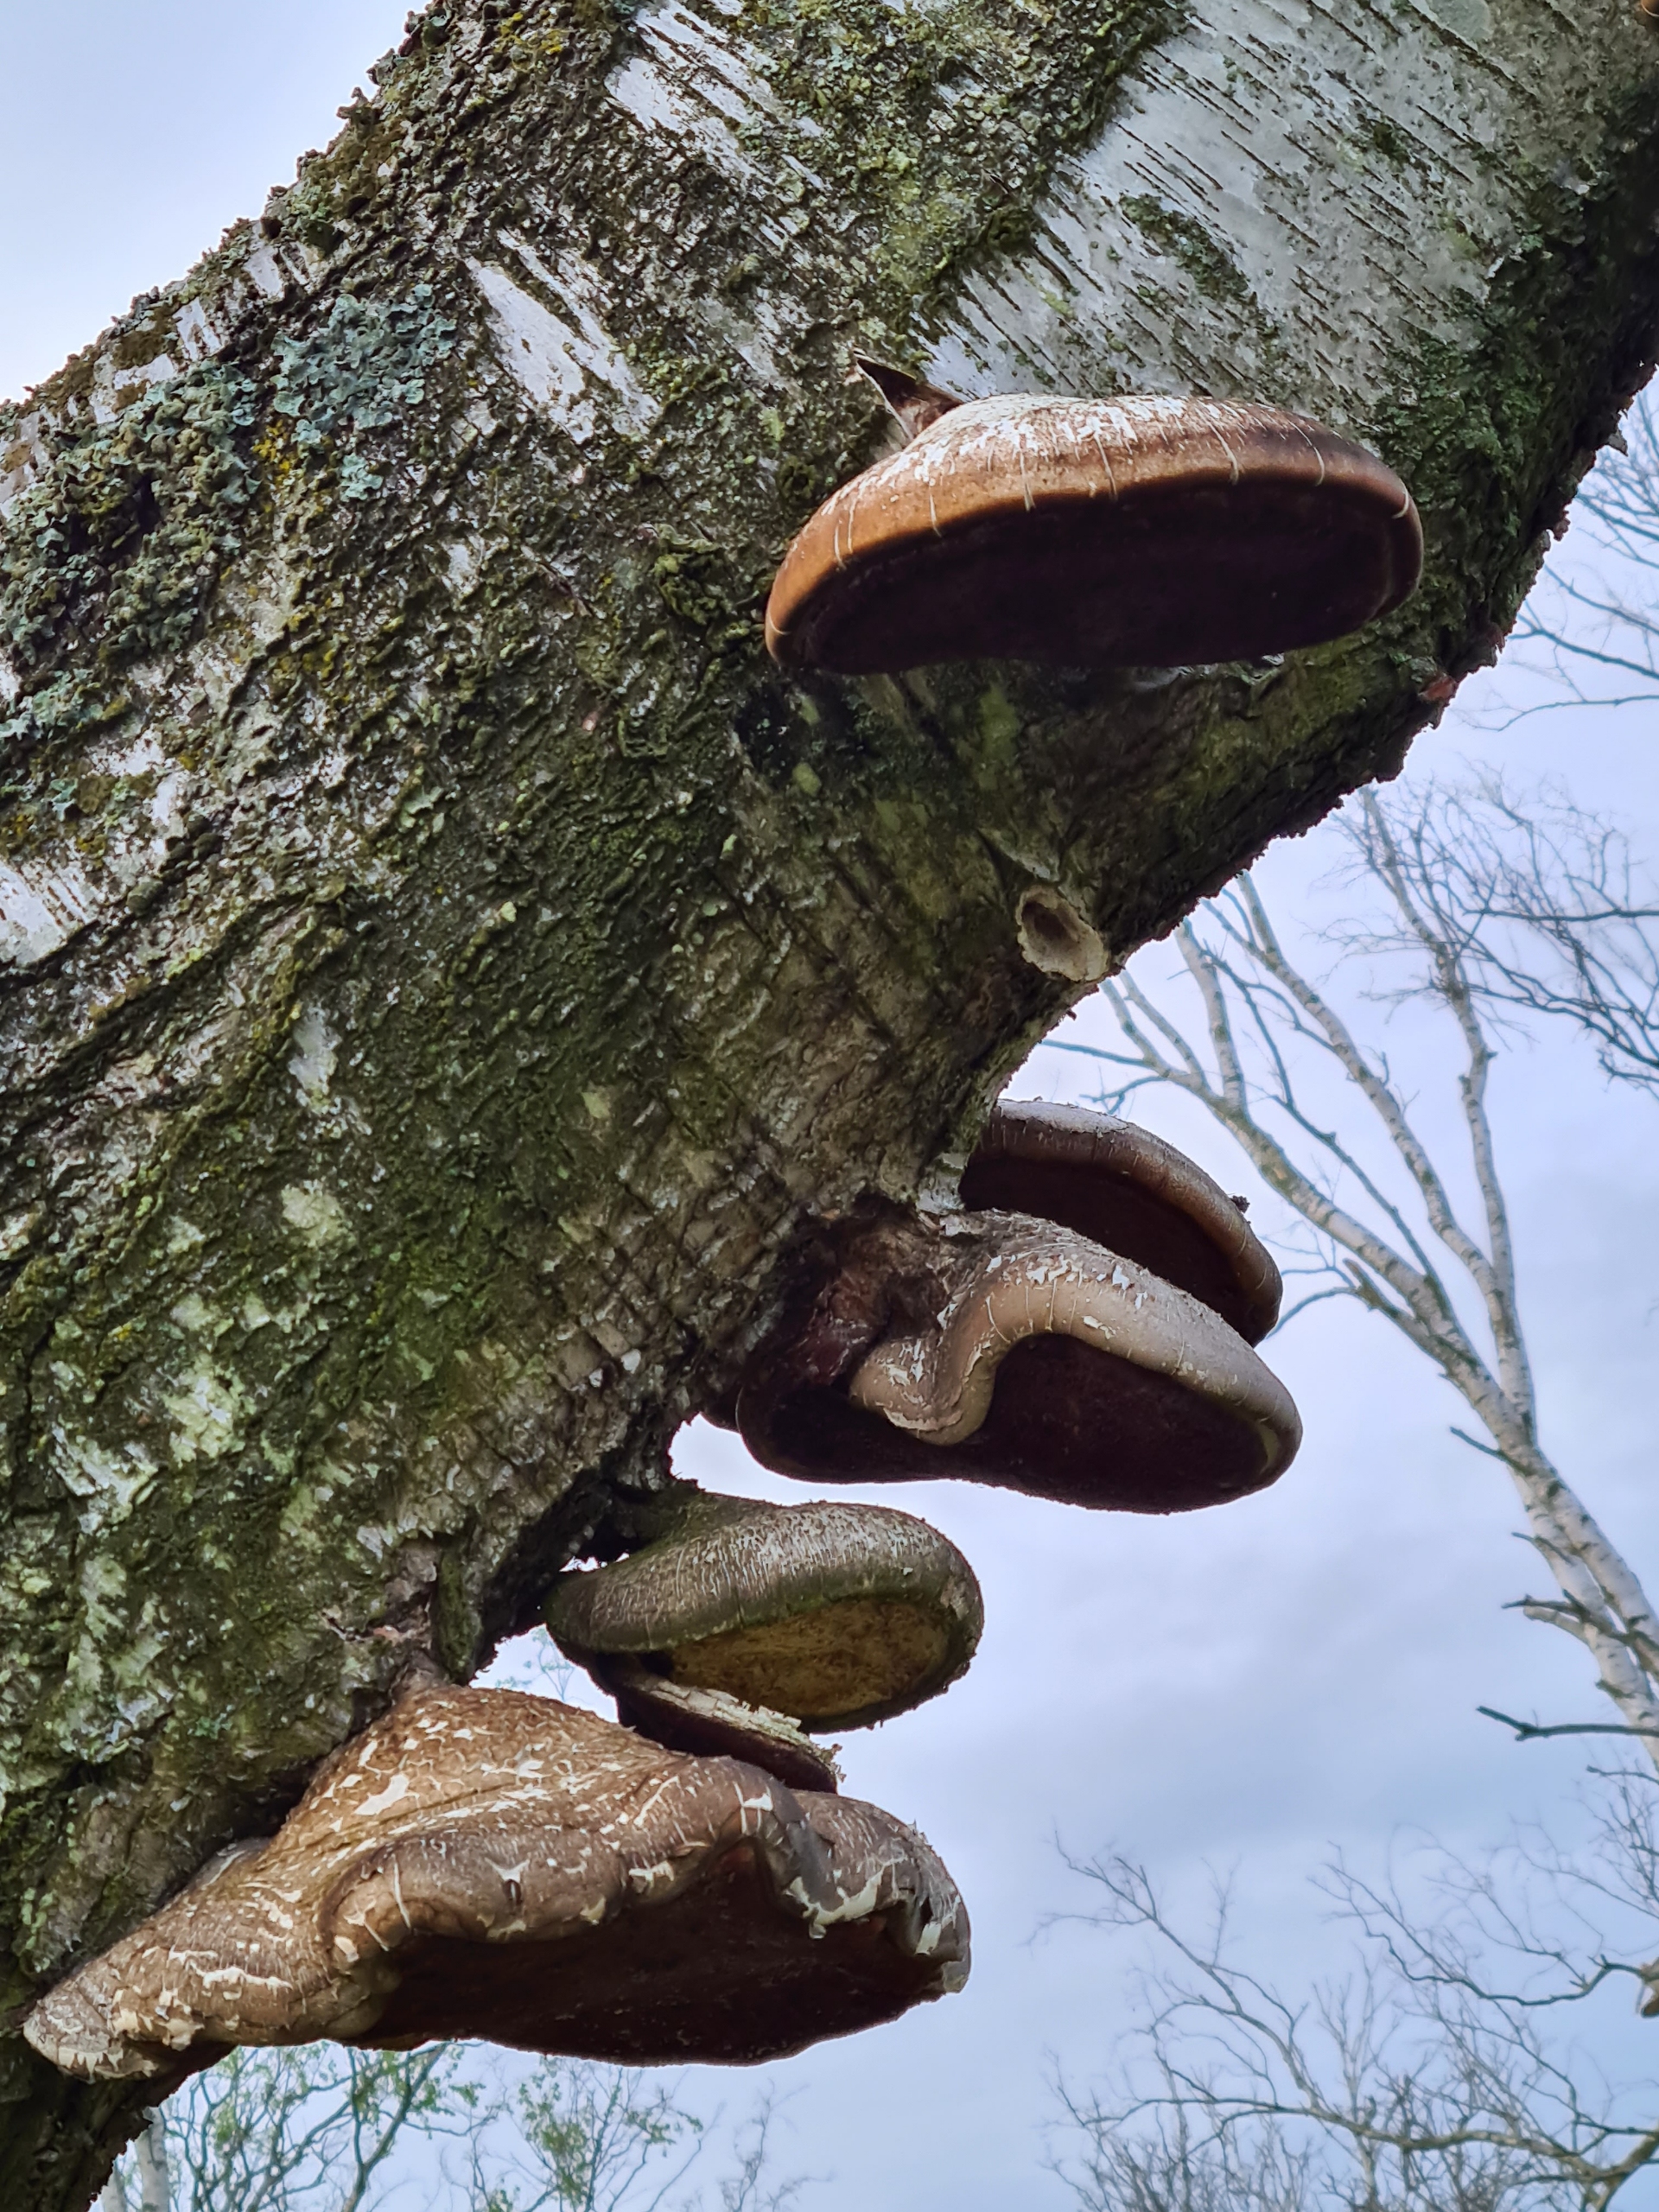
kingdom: Fungi
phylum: Basidiomycota
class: Agaricomycetes
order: Polyporales
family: Fomitopsidaceae
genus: Fomitopsis
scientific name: Fomitopsis betulina
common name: Birkeporesvamp
